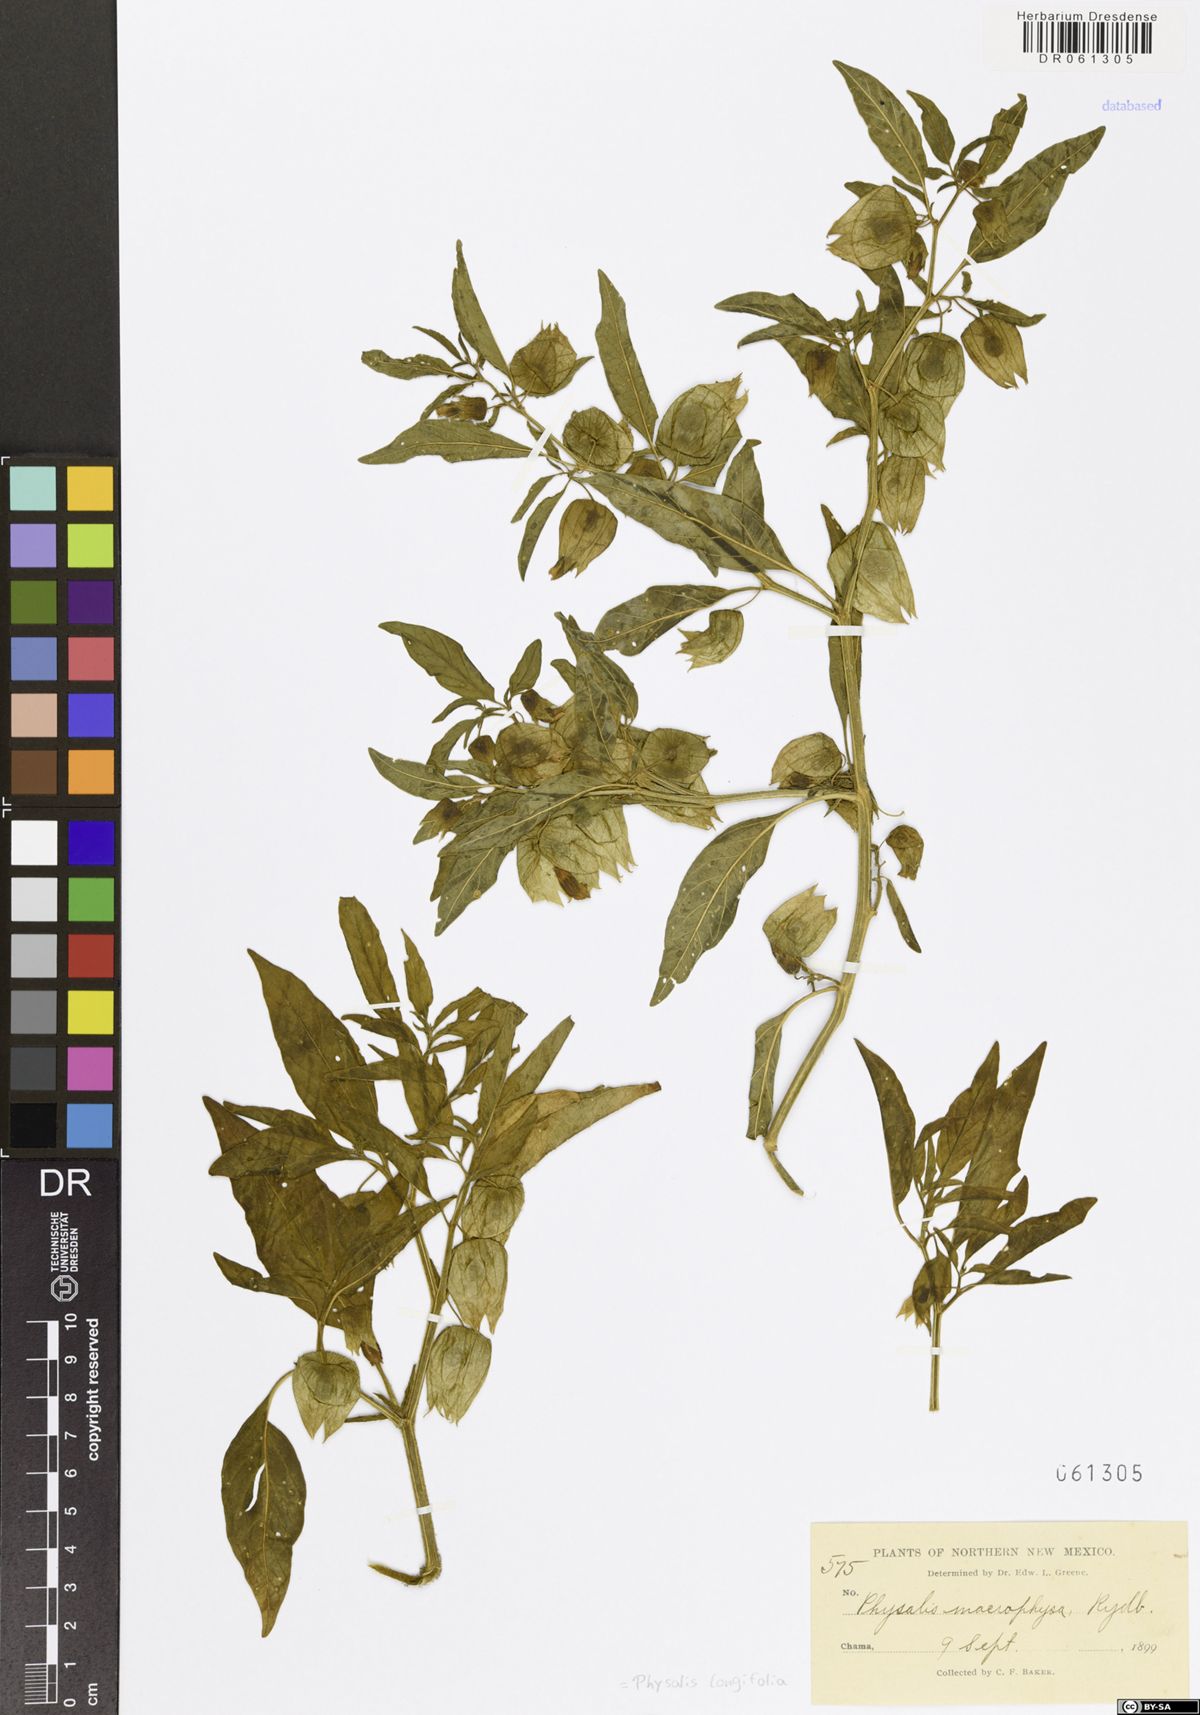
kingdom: Plantae
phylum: Tracheophyta
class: Magnoliopsida
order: Solanales
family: Solanaceae
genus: Physalis
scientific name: Physalis longifolia
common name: Common ground-cherry
